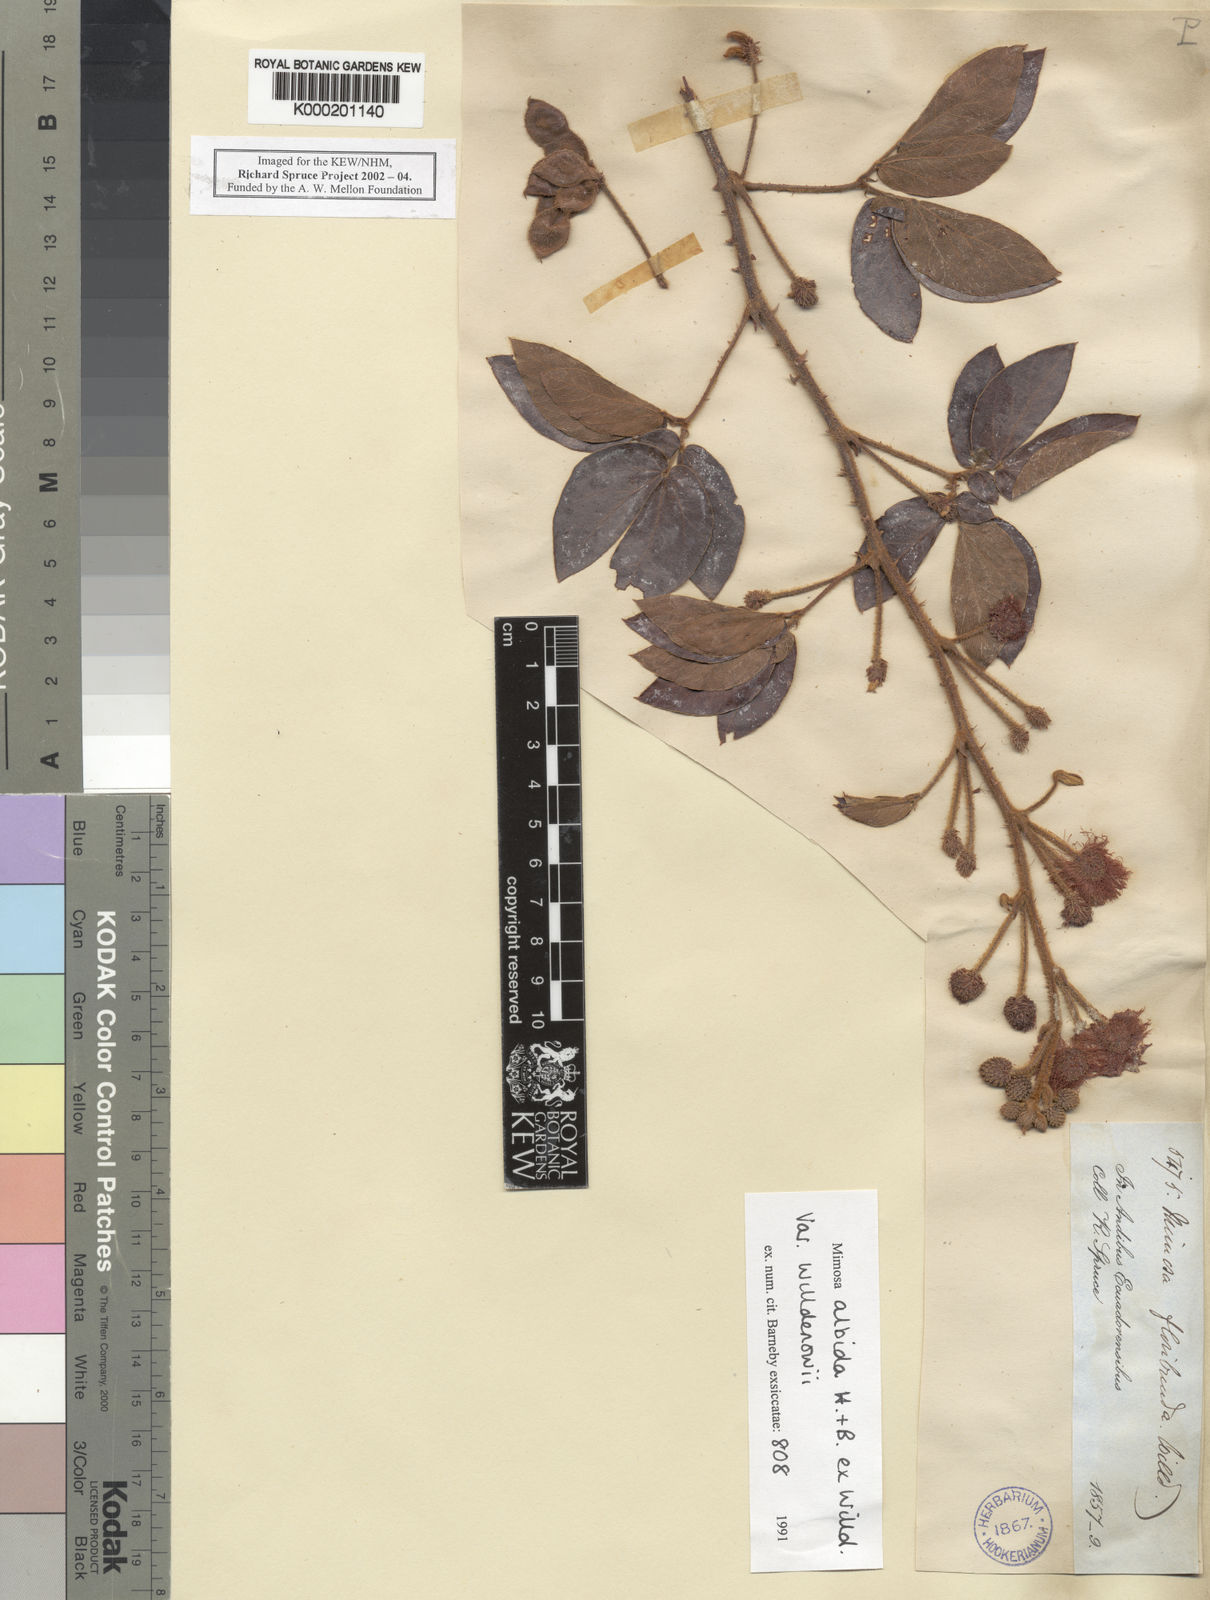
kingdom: Plantae
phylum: Tracheophyta
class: Magnoliopsida
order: Fabales
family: Fabaceae
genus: Mimosa
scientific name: Mimosa albida
